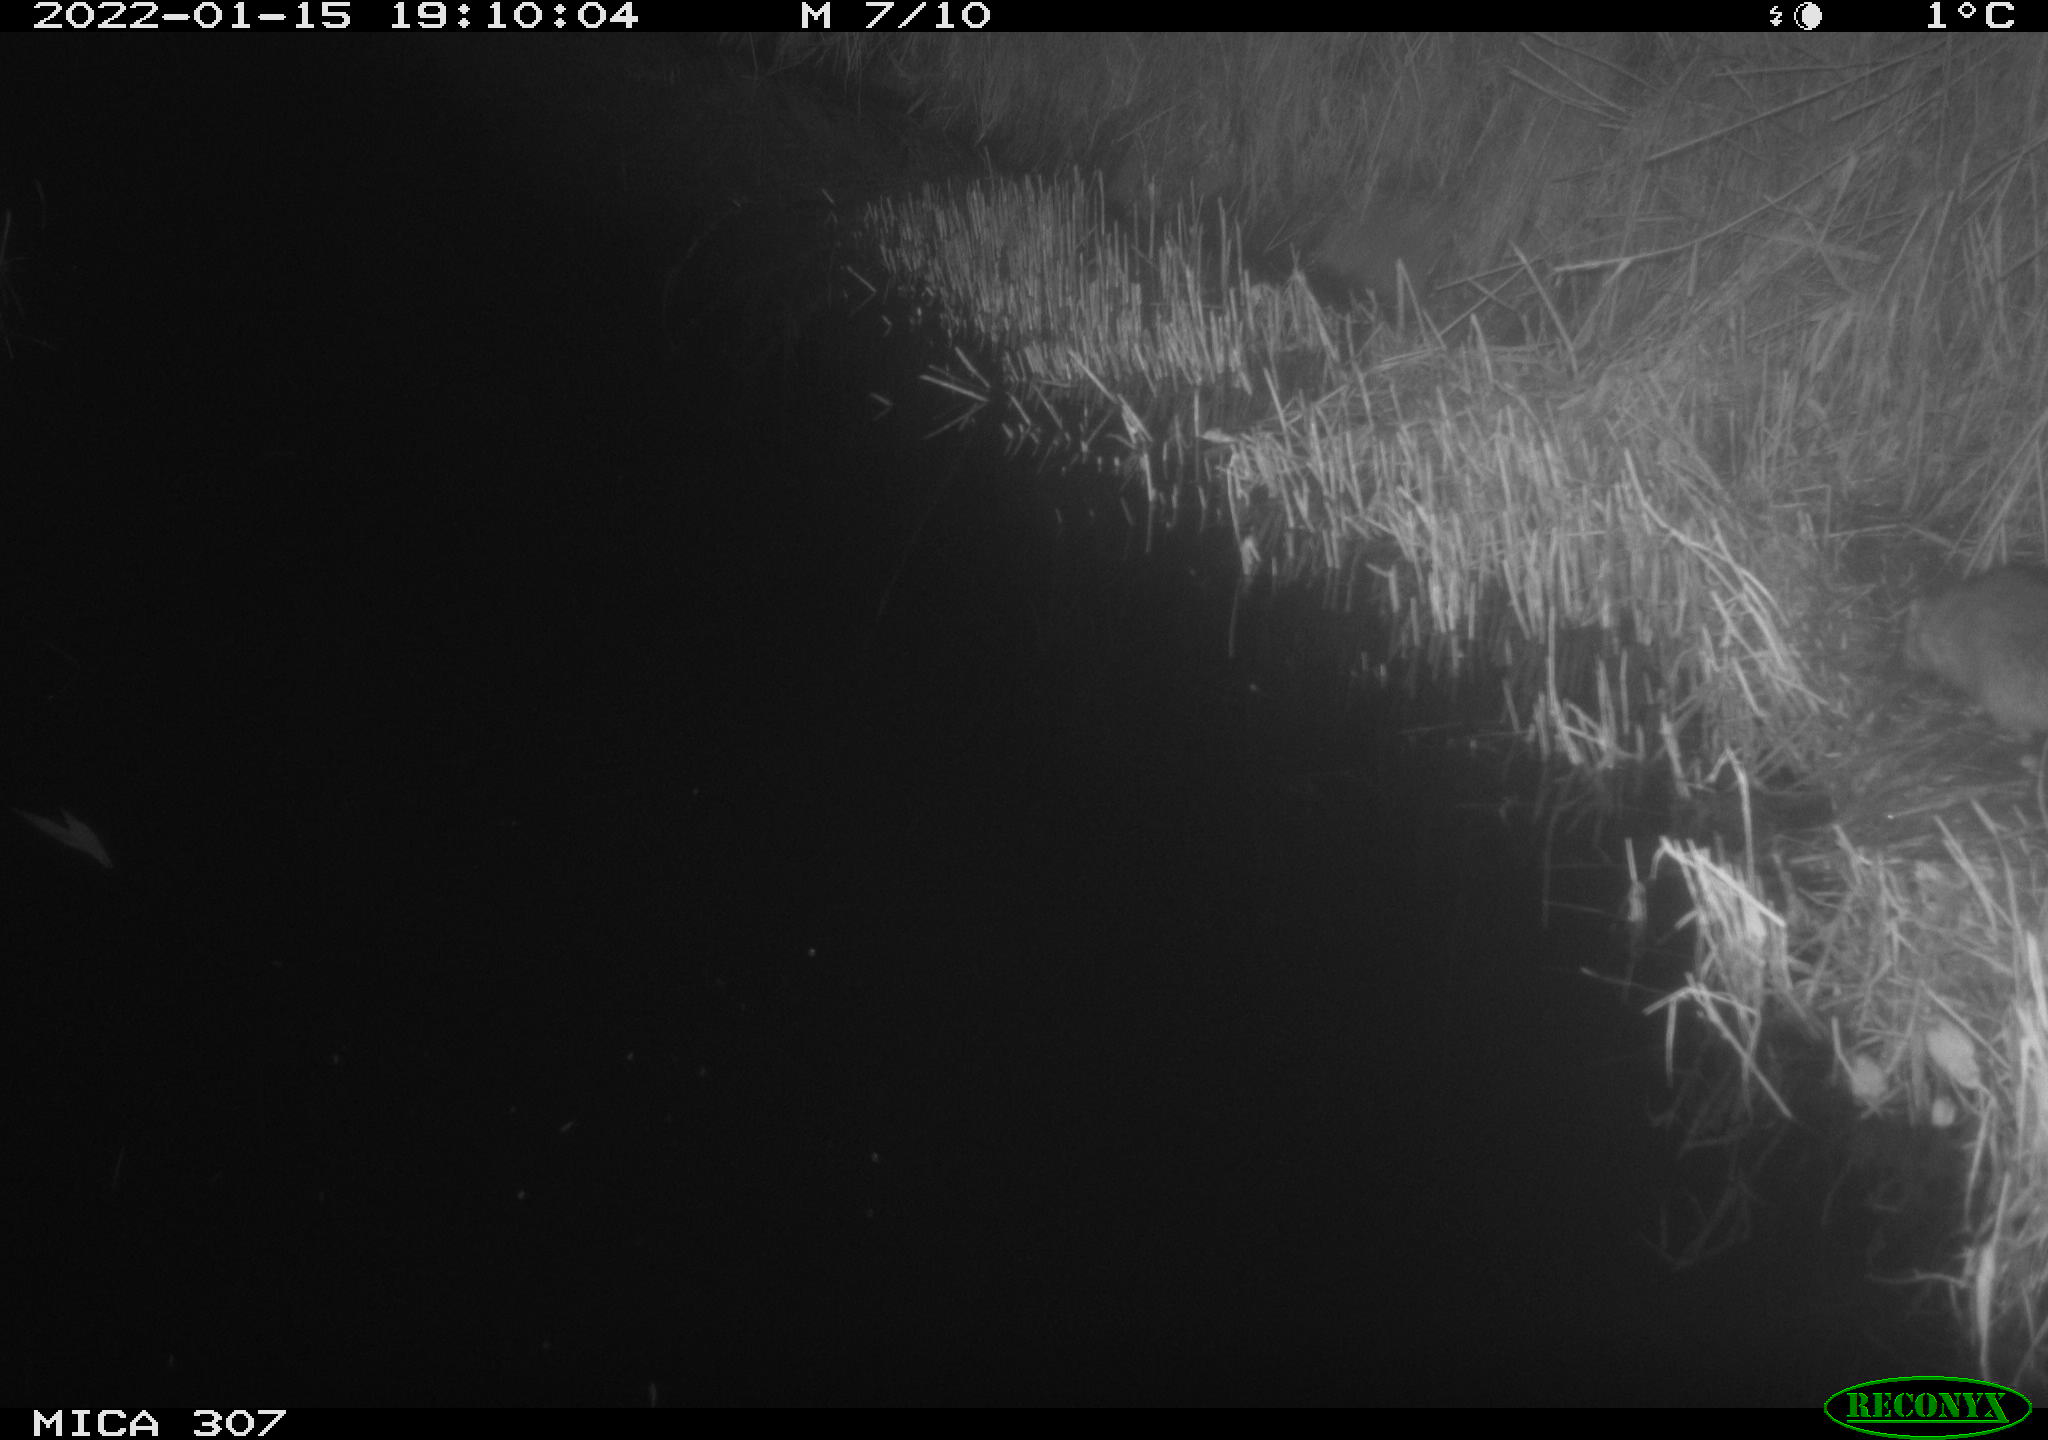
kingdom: Animalia
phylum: Chordata
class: Mammalia
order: Rodentia
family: Muridae
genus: Rattus
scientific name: Rattus norvegicus
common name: Brown rat
